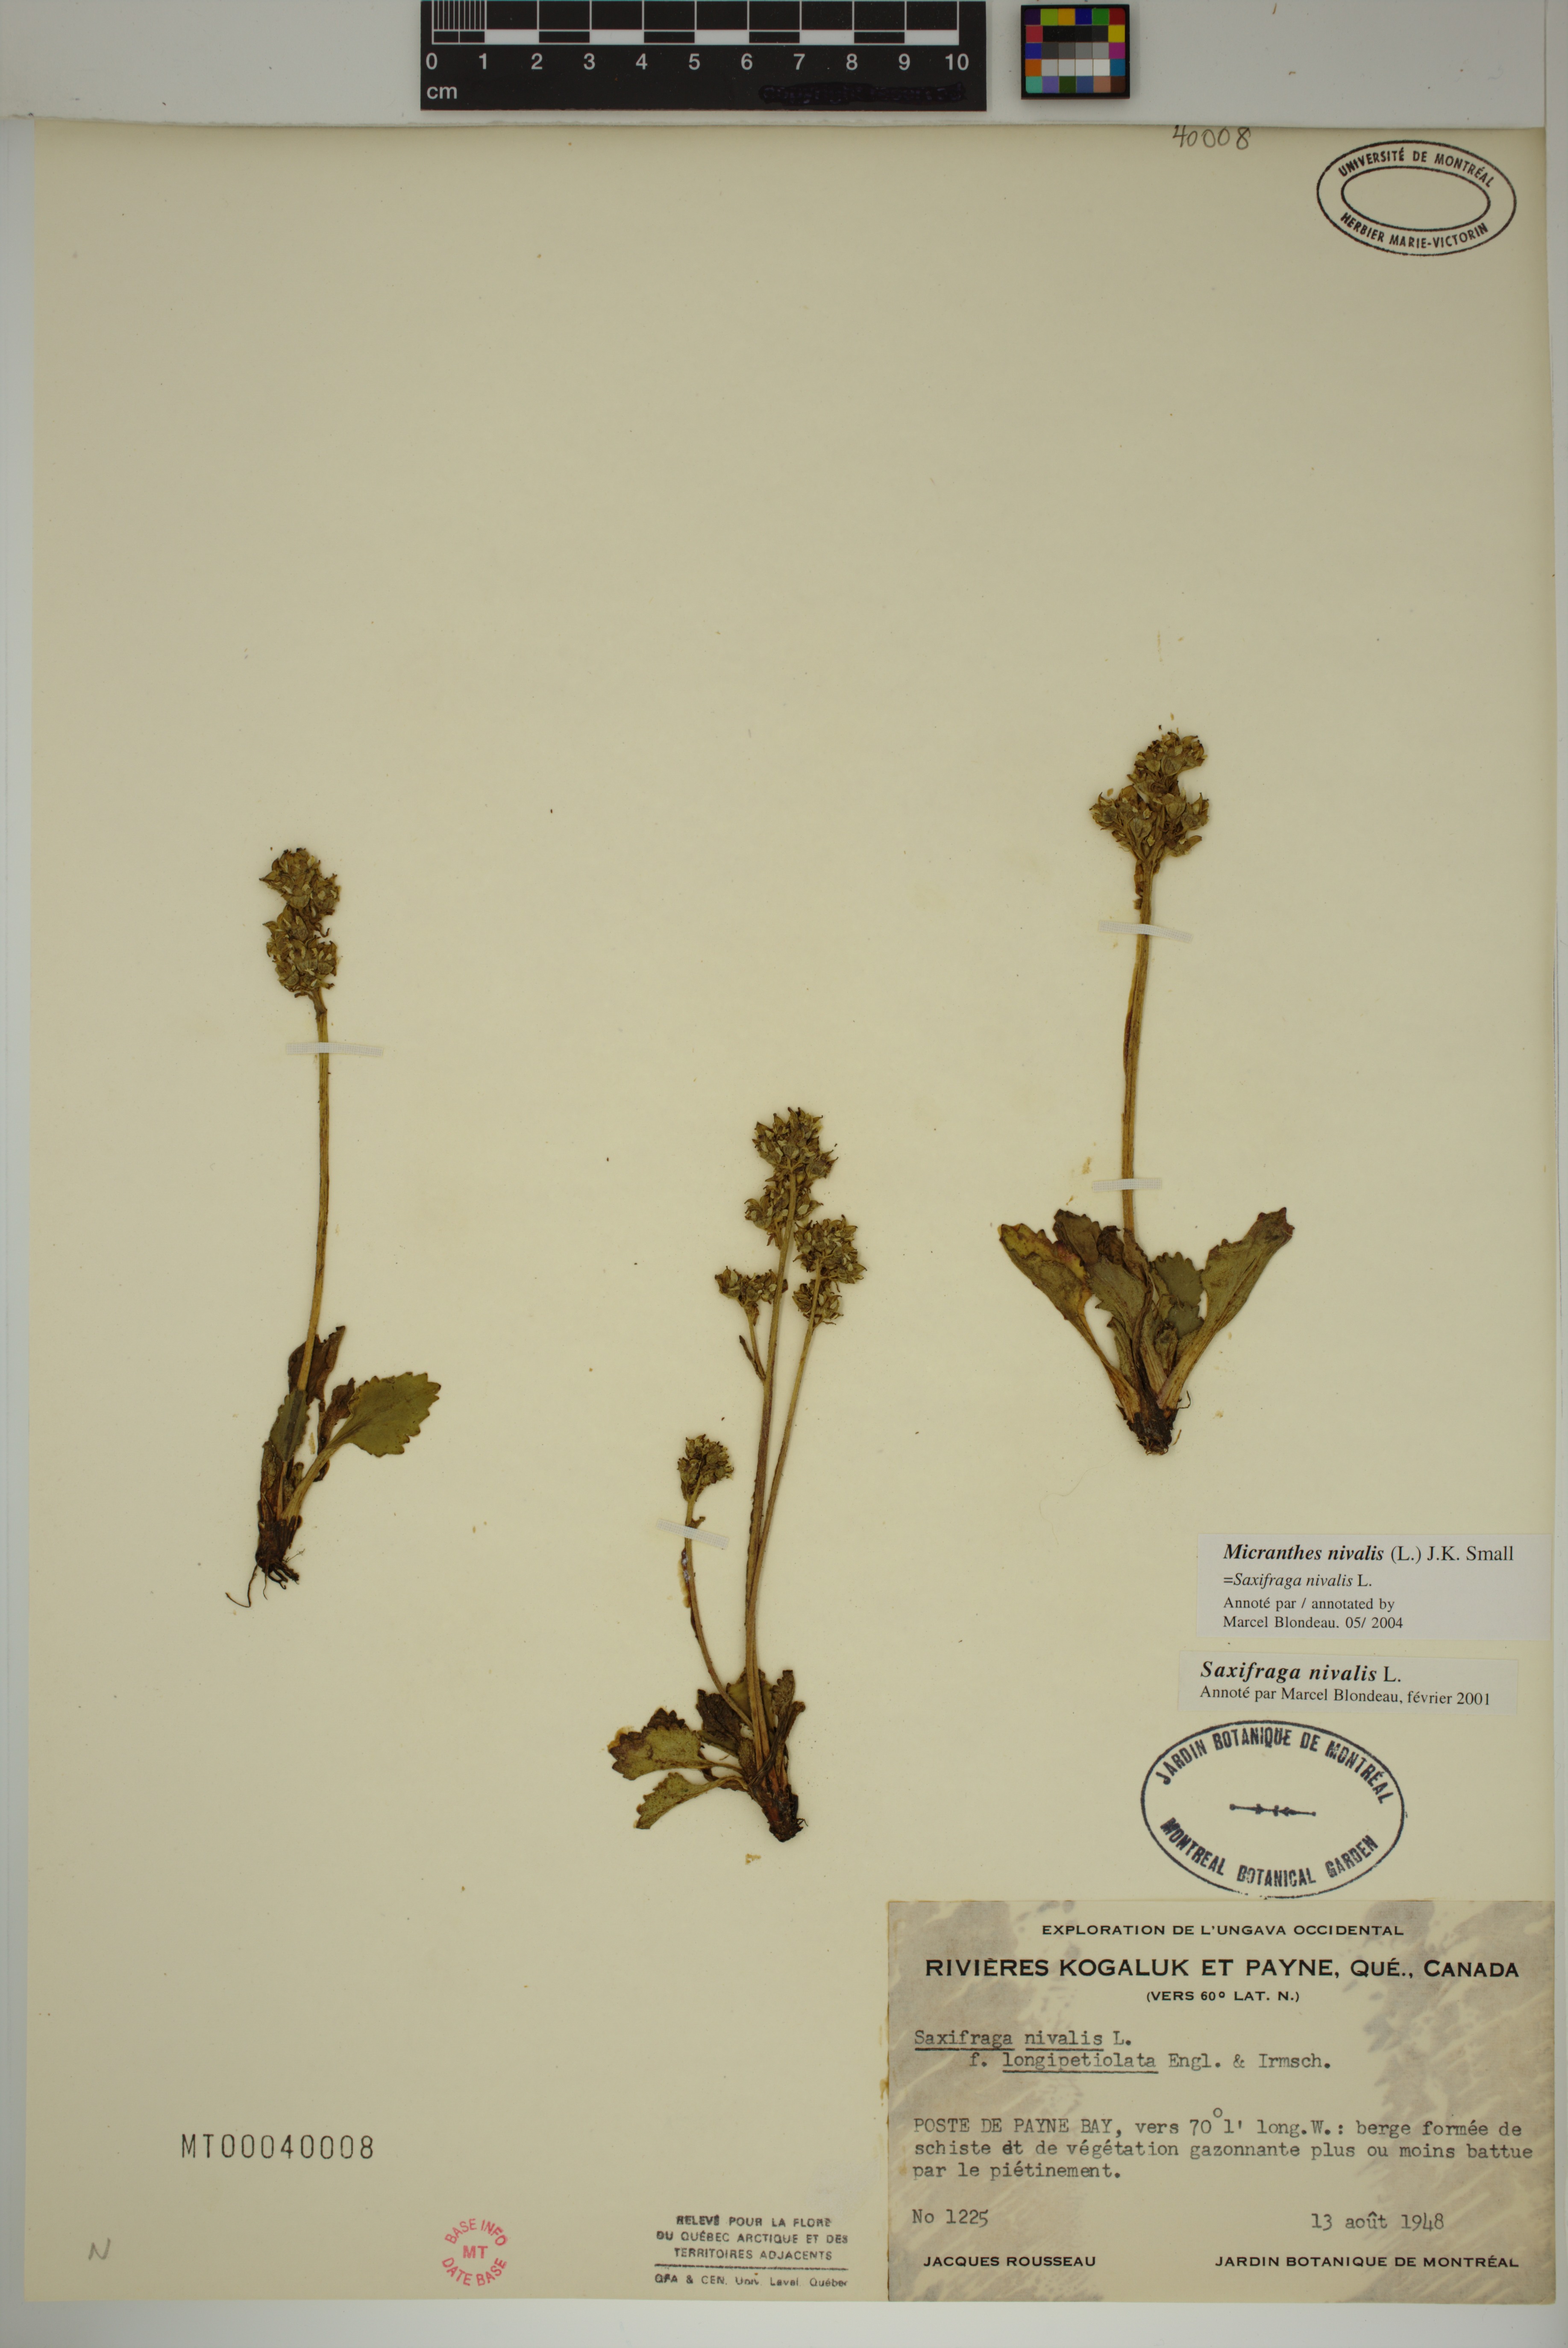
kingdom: Plantae
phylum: Tracheophyta
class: Magnoliopsida
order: Saxifragales
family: Saxifragaceae
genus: Micranthes
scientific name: Micranthes nivalis
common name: Alpine saxifrage
